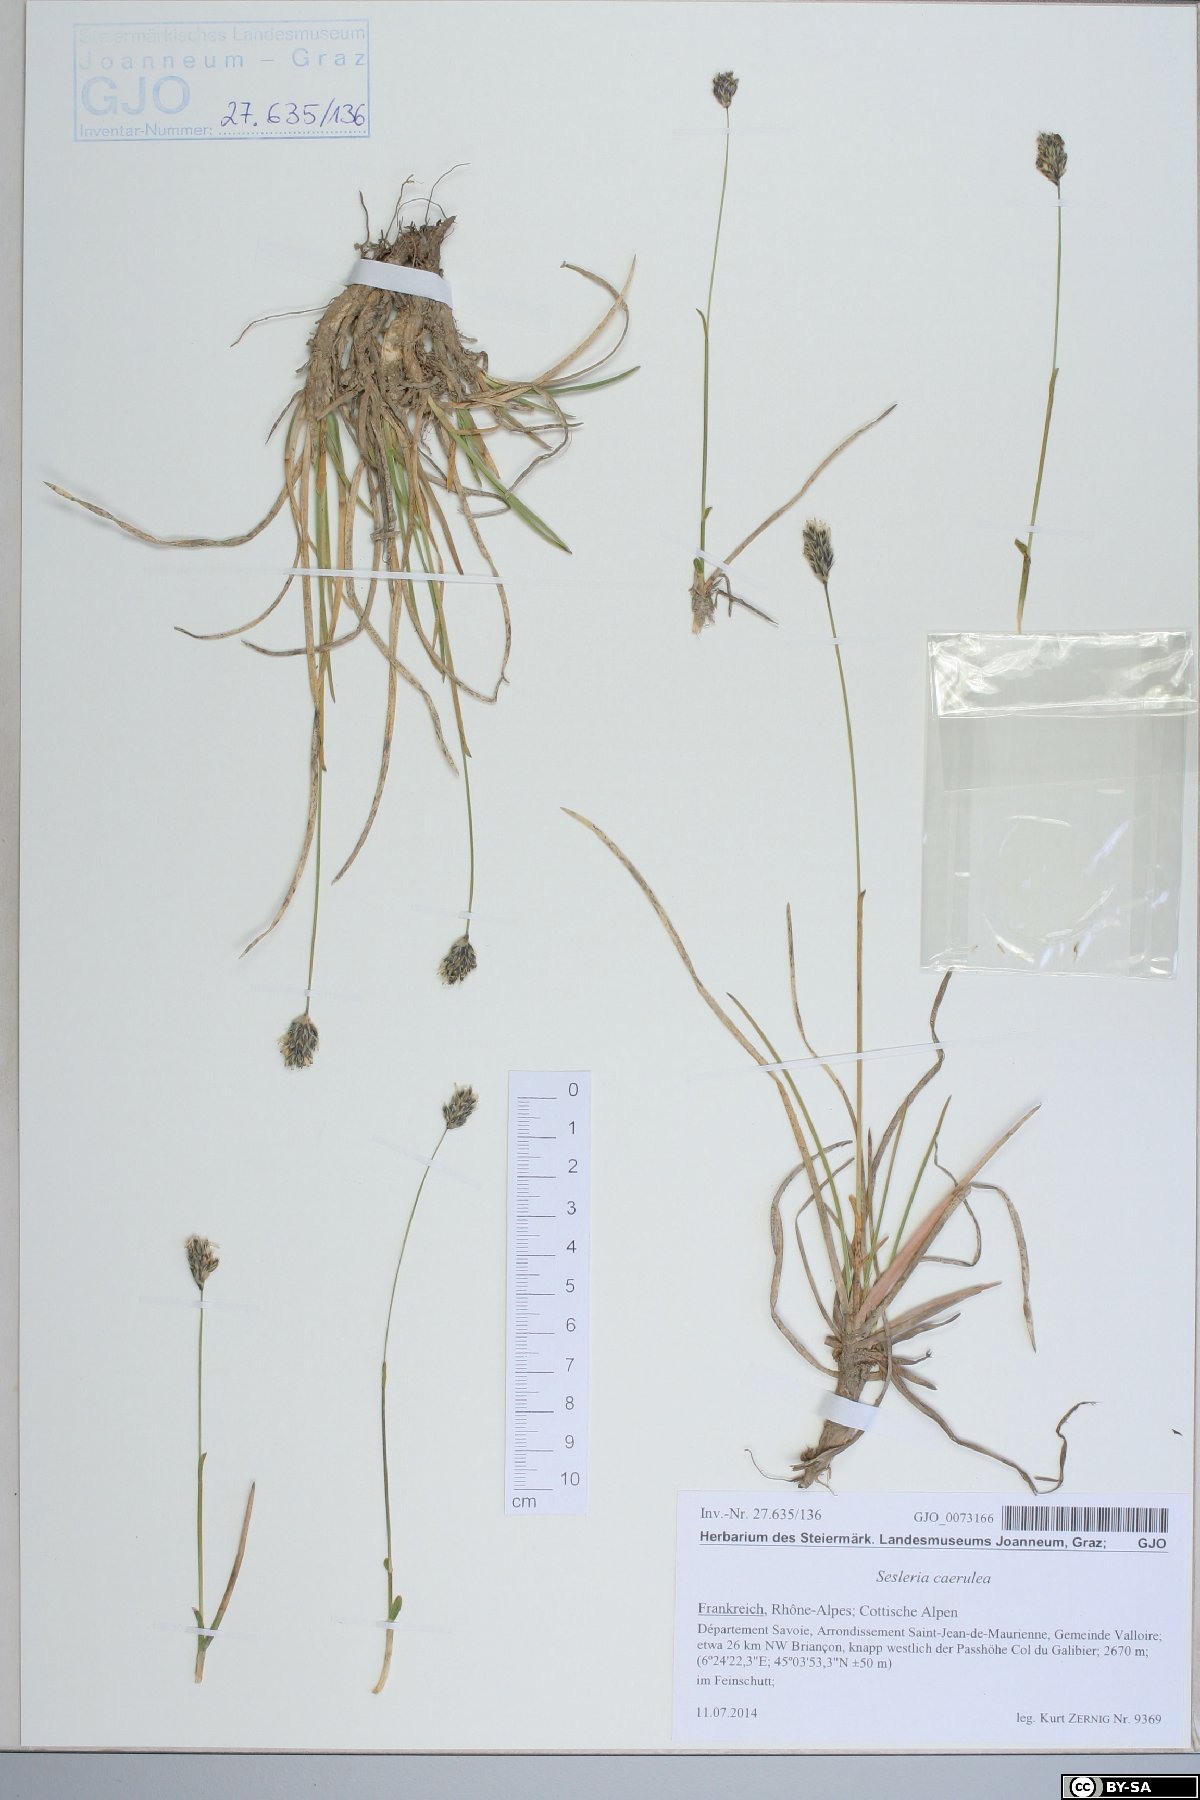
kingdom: Plantae
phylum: Tracheophyta
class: Liliopsida
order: Poales
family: Poaceae
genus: Sesleria
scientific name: Sesleria caerulea
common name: Blue moor-grass
